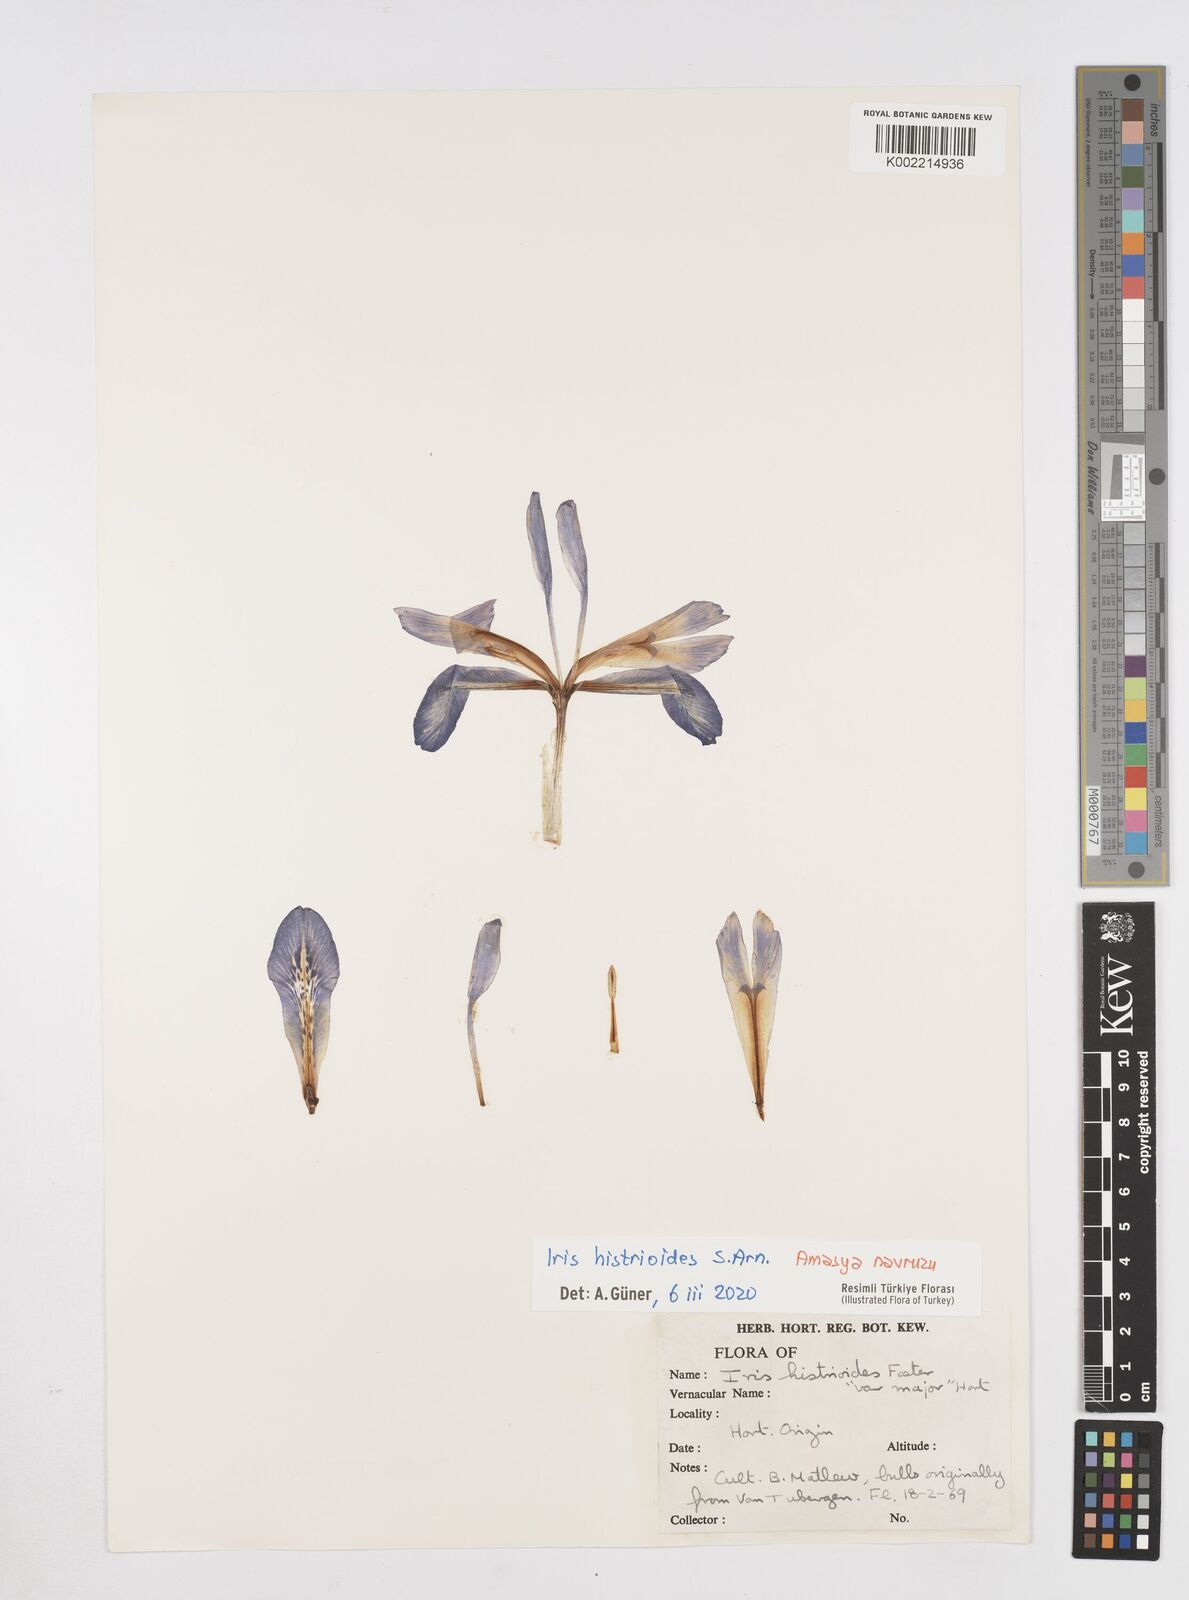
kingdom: Plantae
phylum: Tracheophyta
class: Liliopsida
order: Asparagales
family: Iridaceae
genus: Iris
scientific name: Iris histrioides
